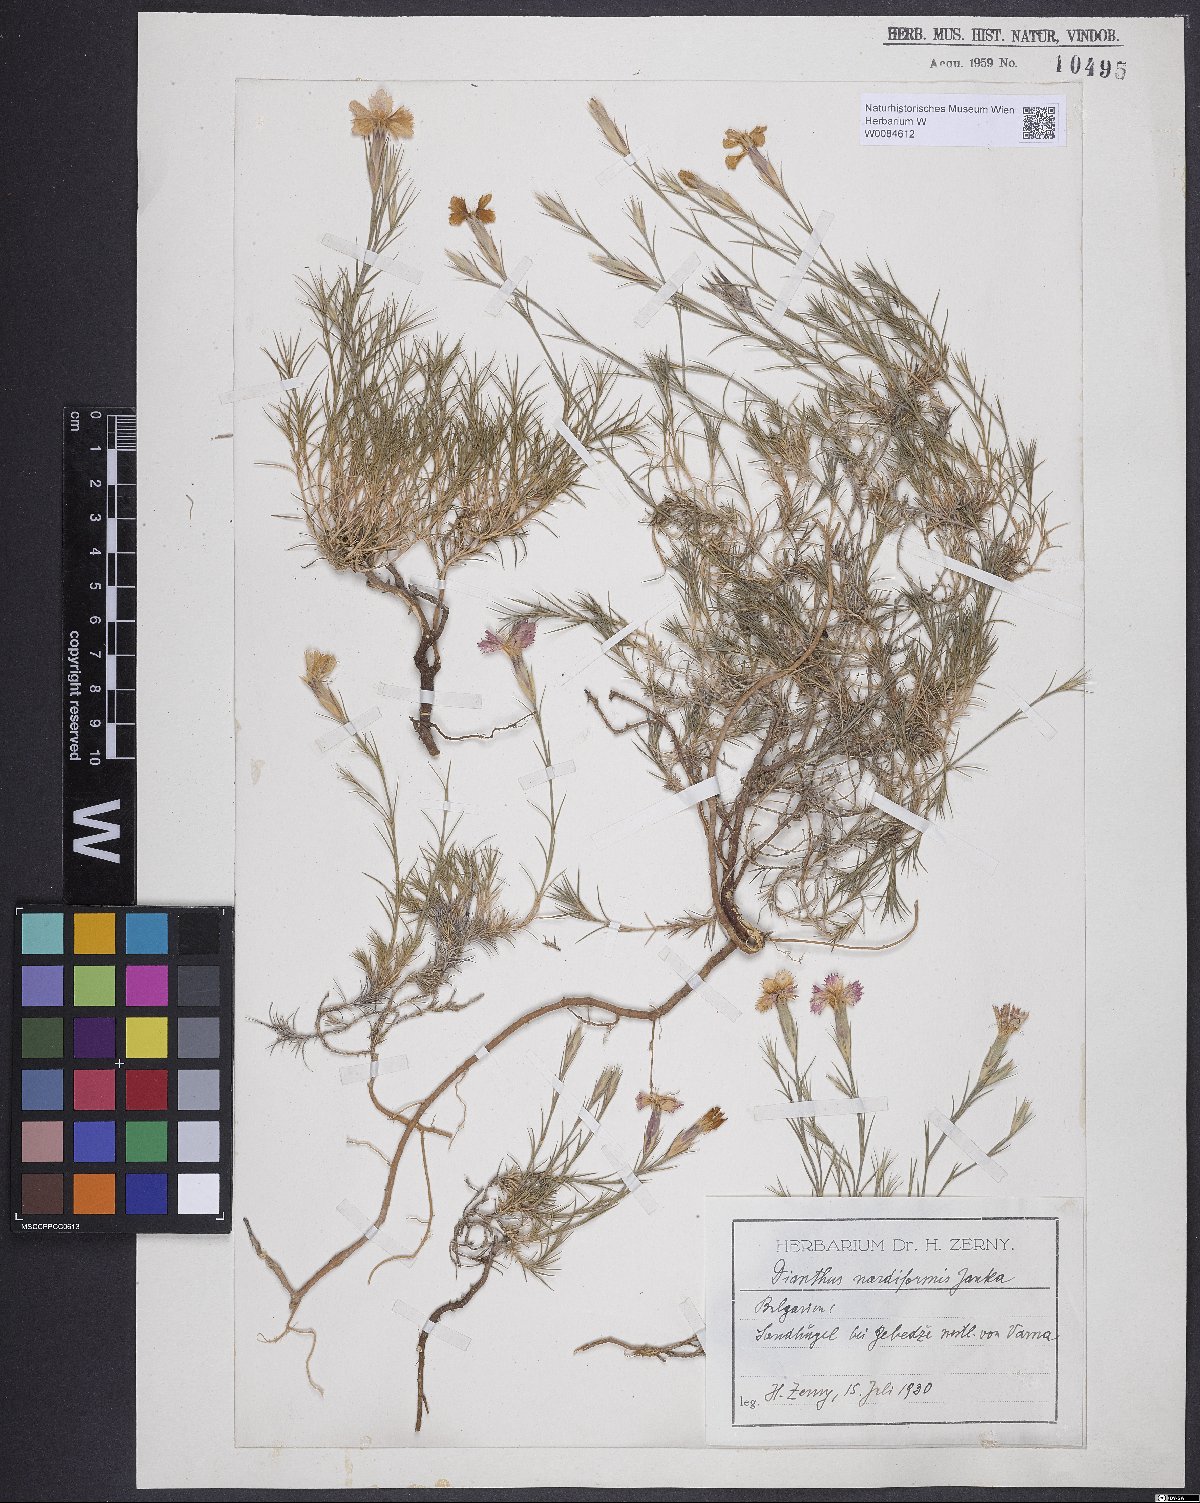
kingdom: Plantae
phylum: Tracheophyta
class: Magnoliopsida
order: Caryophyllales
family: Caryophyllaceae
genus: Dianthus
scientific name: Dianthus nardiformis
